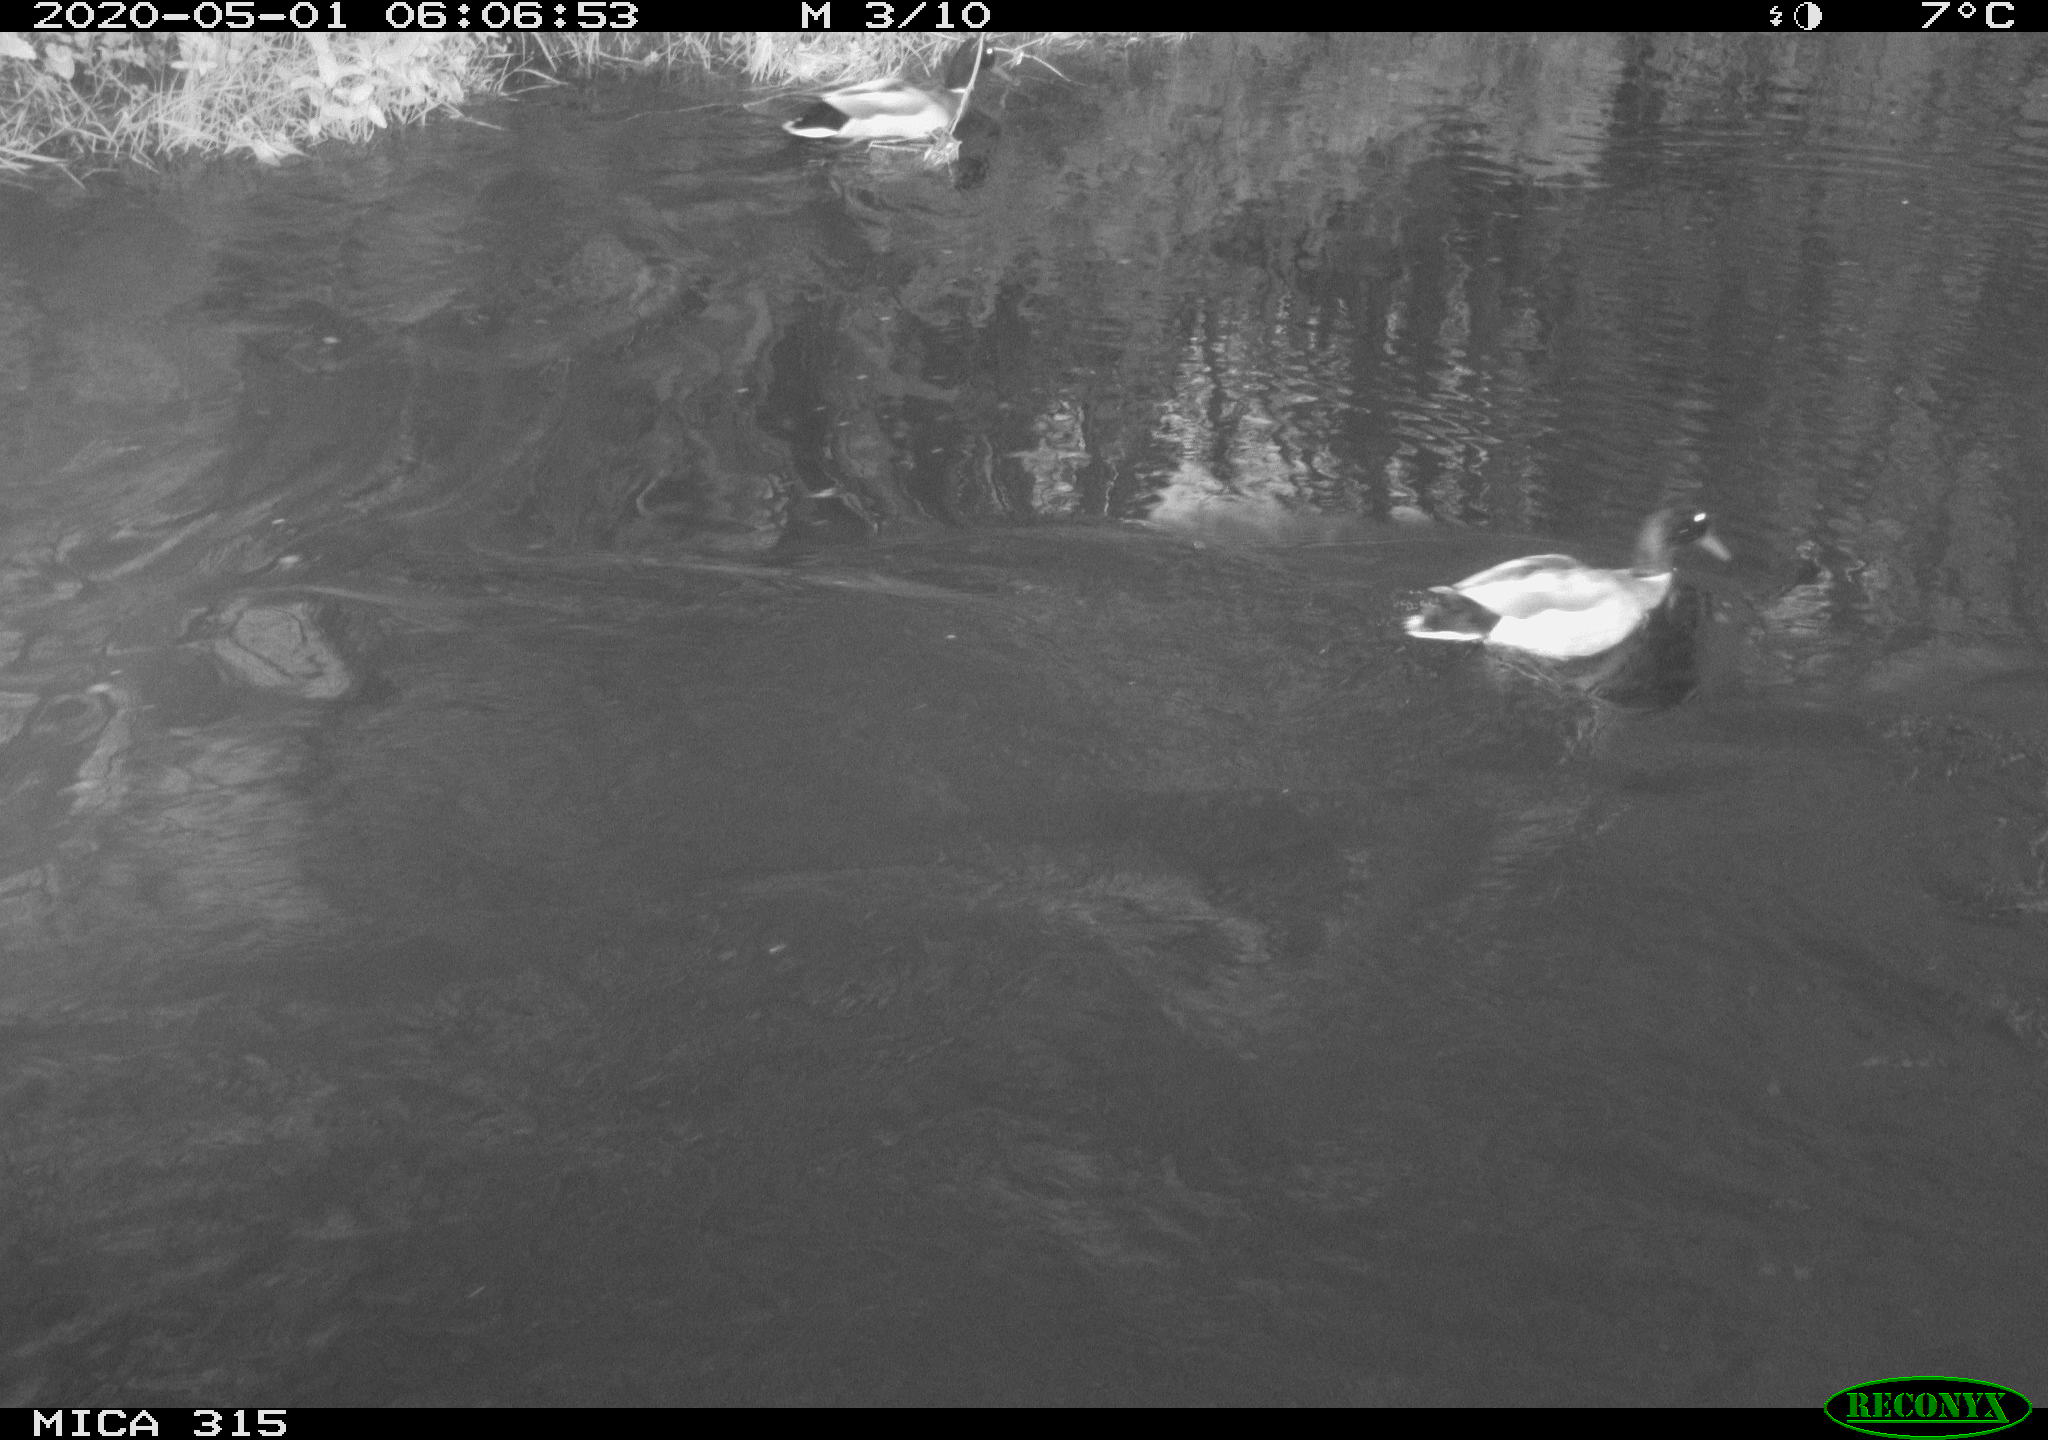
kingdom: Animalia
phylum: Chordata
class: Aves
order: Anseriformes
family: Anatidae
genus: Anas
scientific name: Anas platyrhynchos
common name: Mallard
